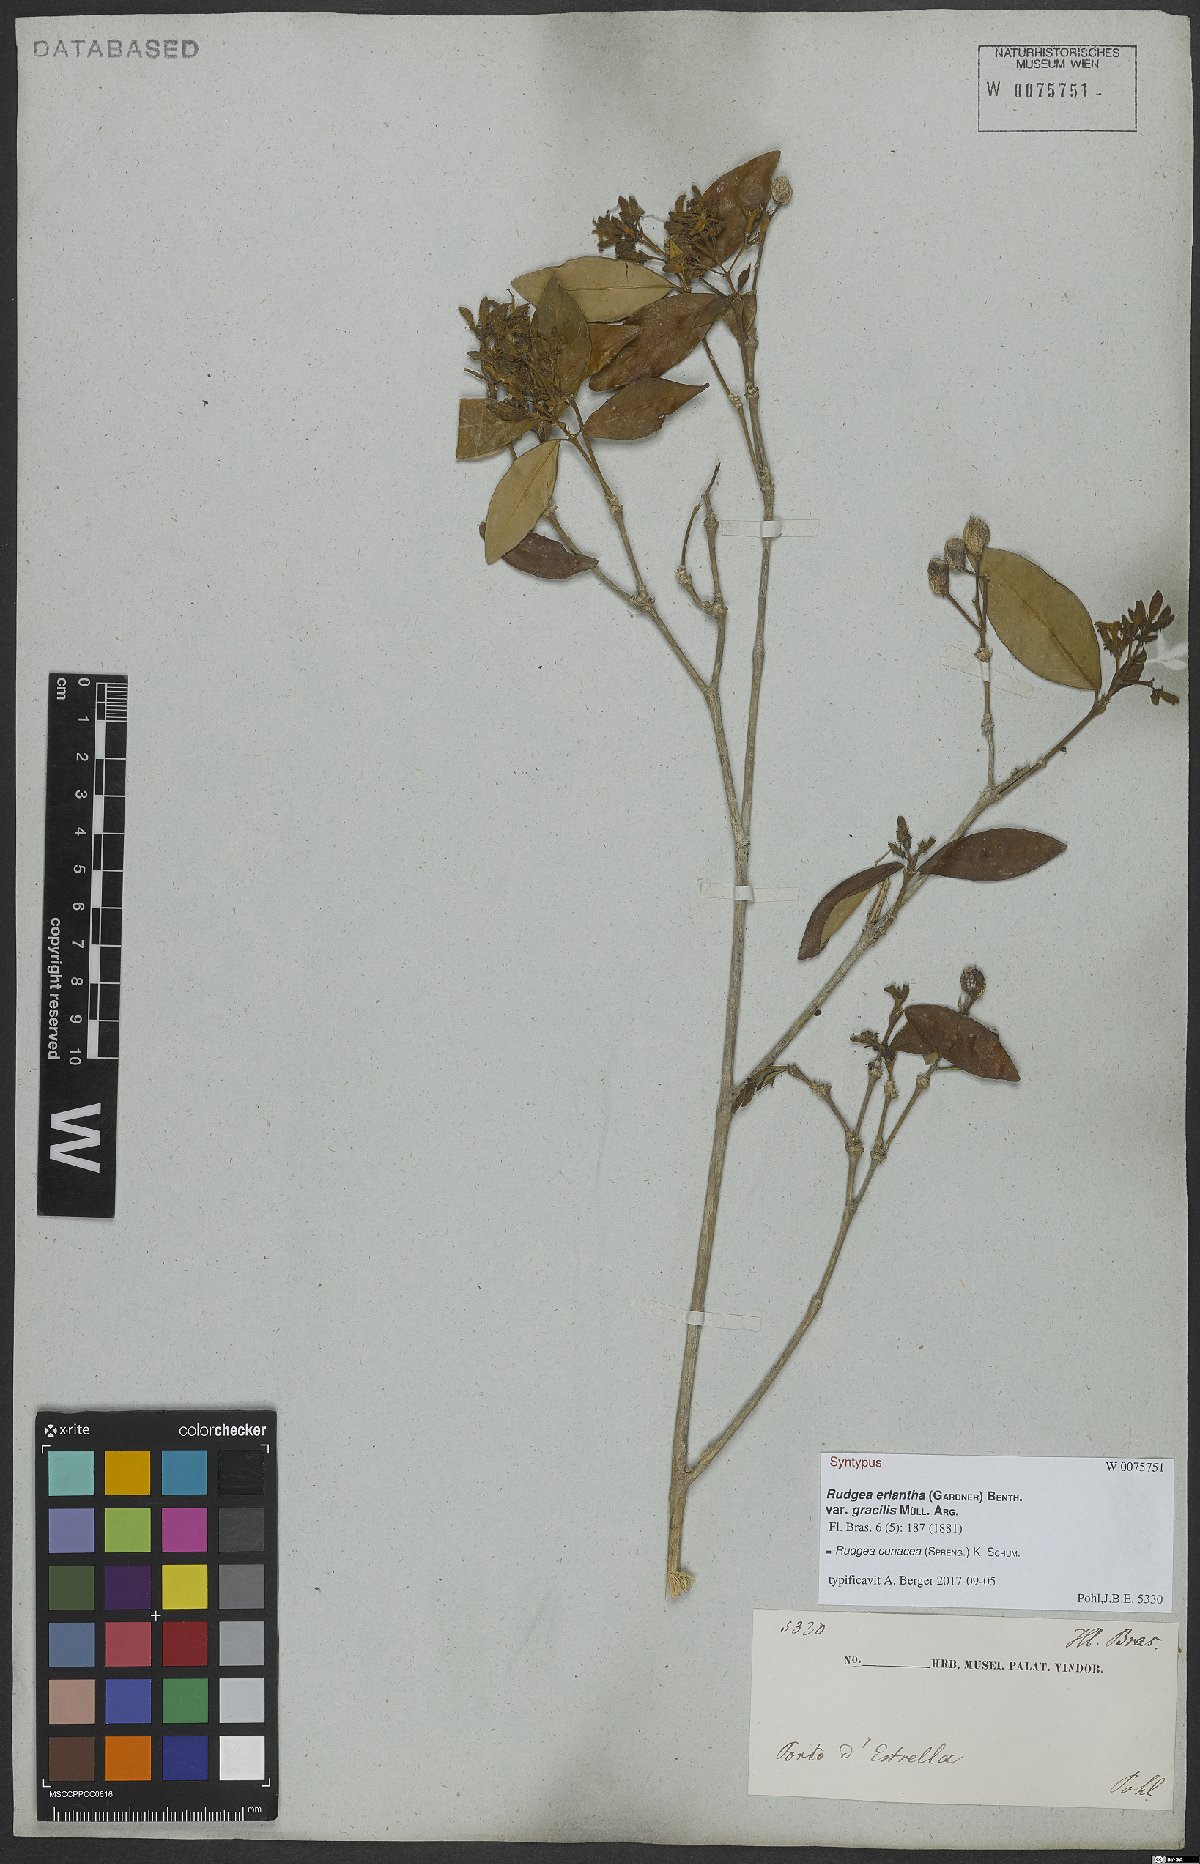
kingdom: Plantae
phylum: Tracheophyta
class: Magnoliopsida
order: Gentianales
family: Rubiaceae
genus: Rudgea
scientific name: Rudgea coriacea
